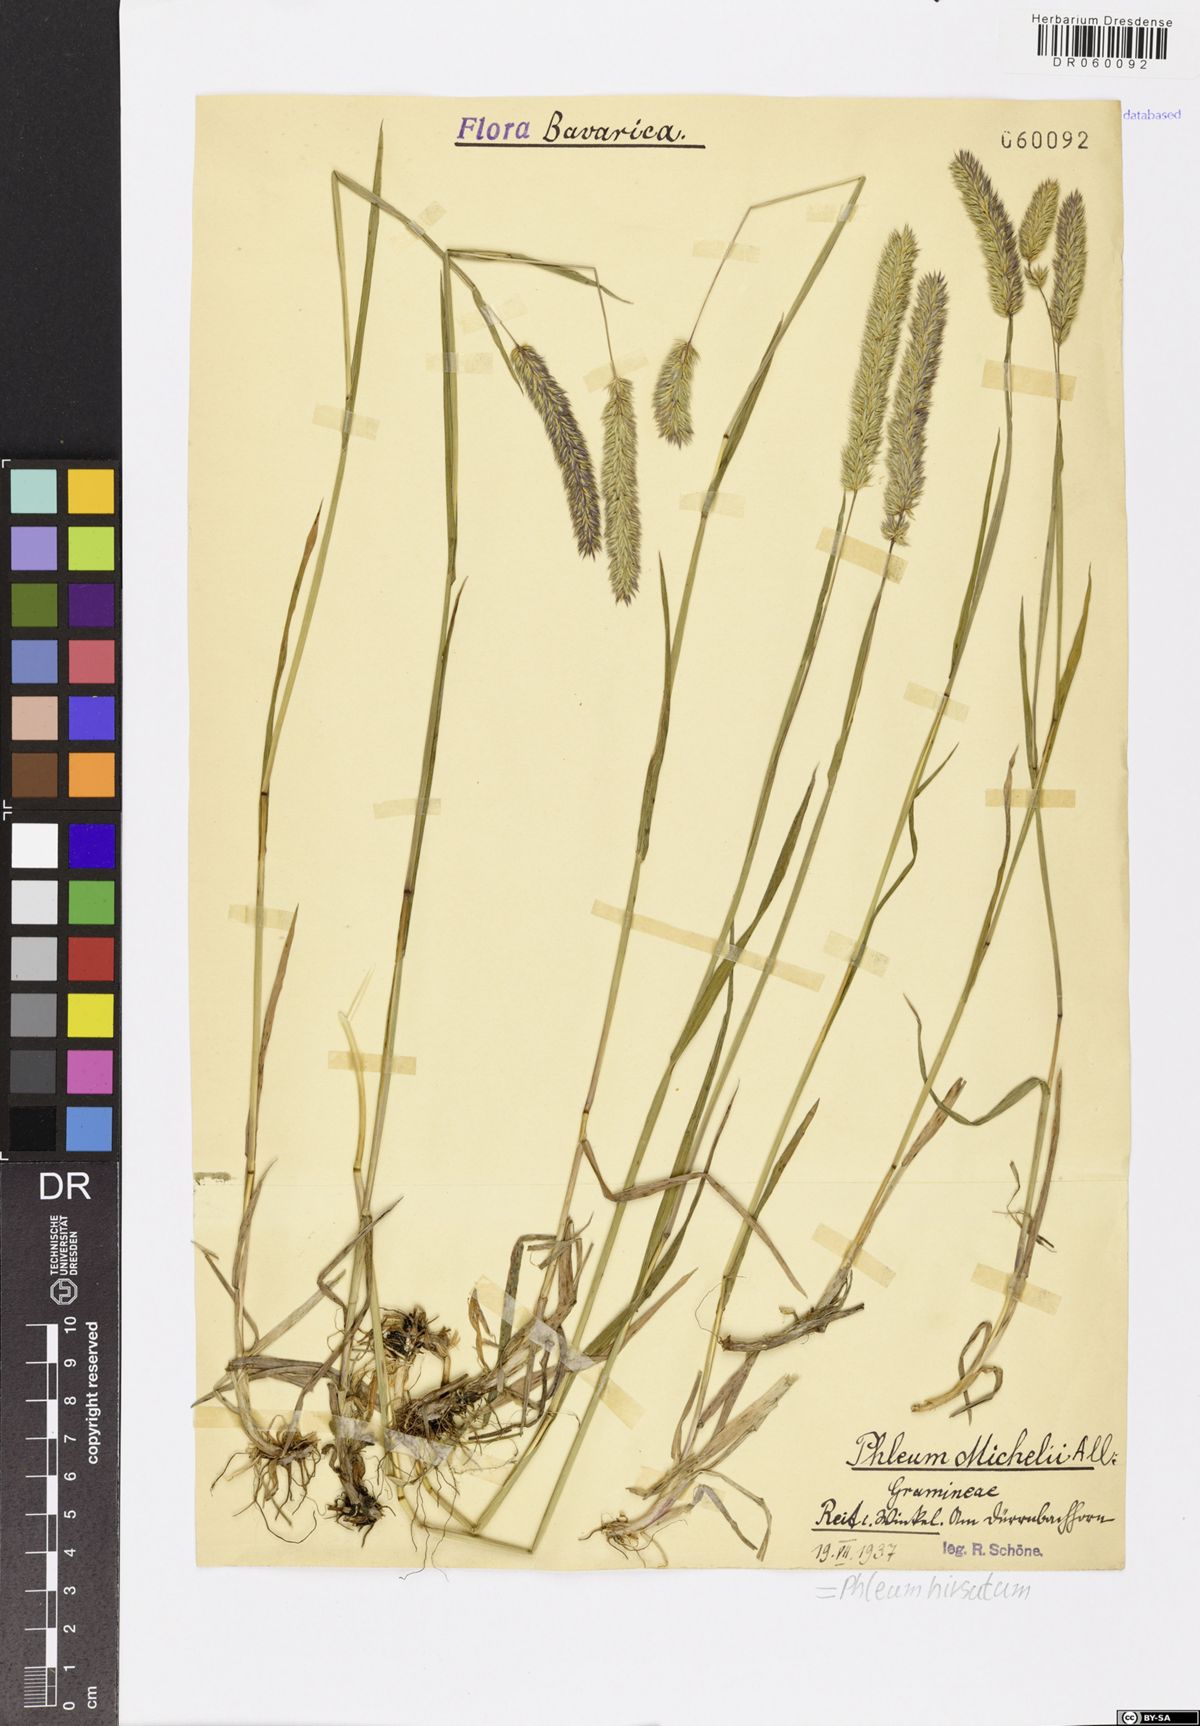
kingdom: Plantae
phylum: Tracheophyta
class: Liliopsida
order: Poales
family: Poaceae
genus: Phleum
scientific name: Phleum hirsutum
